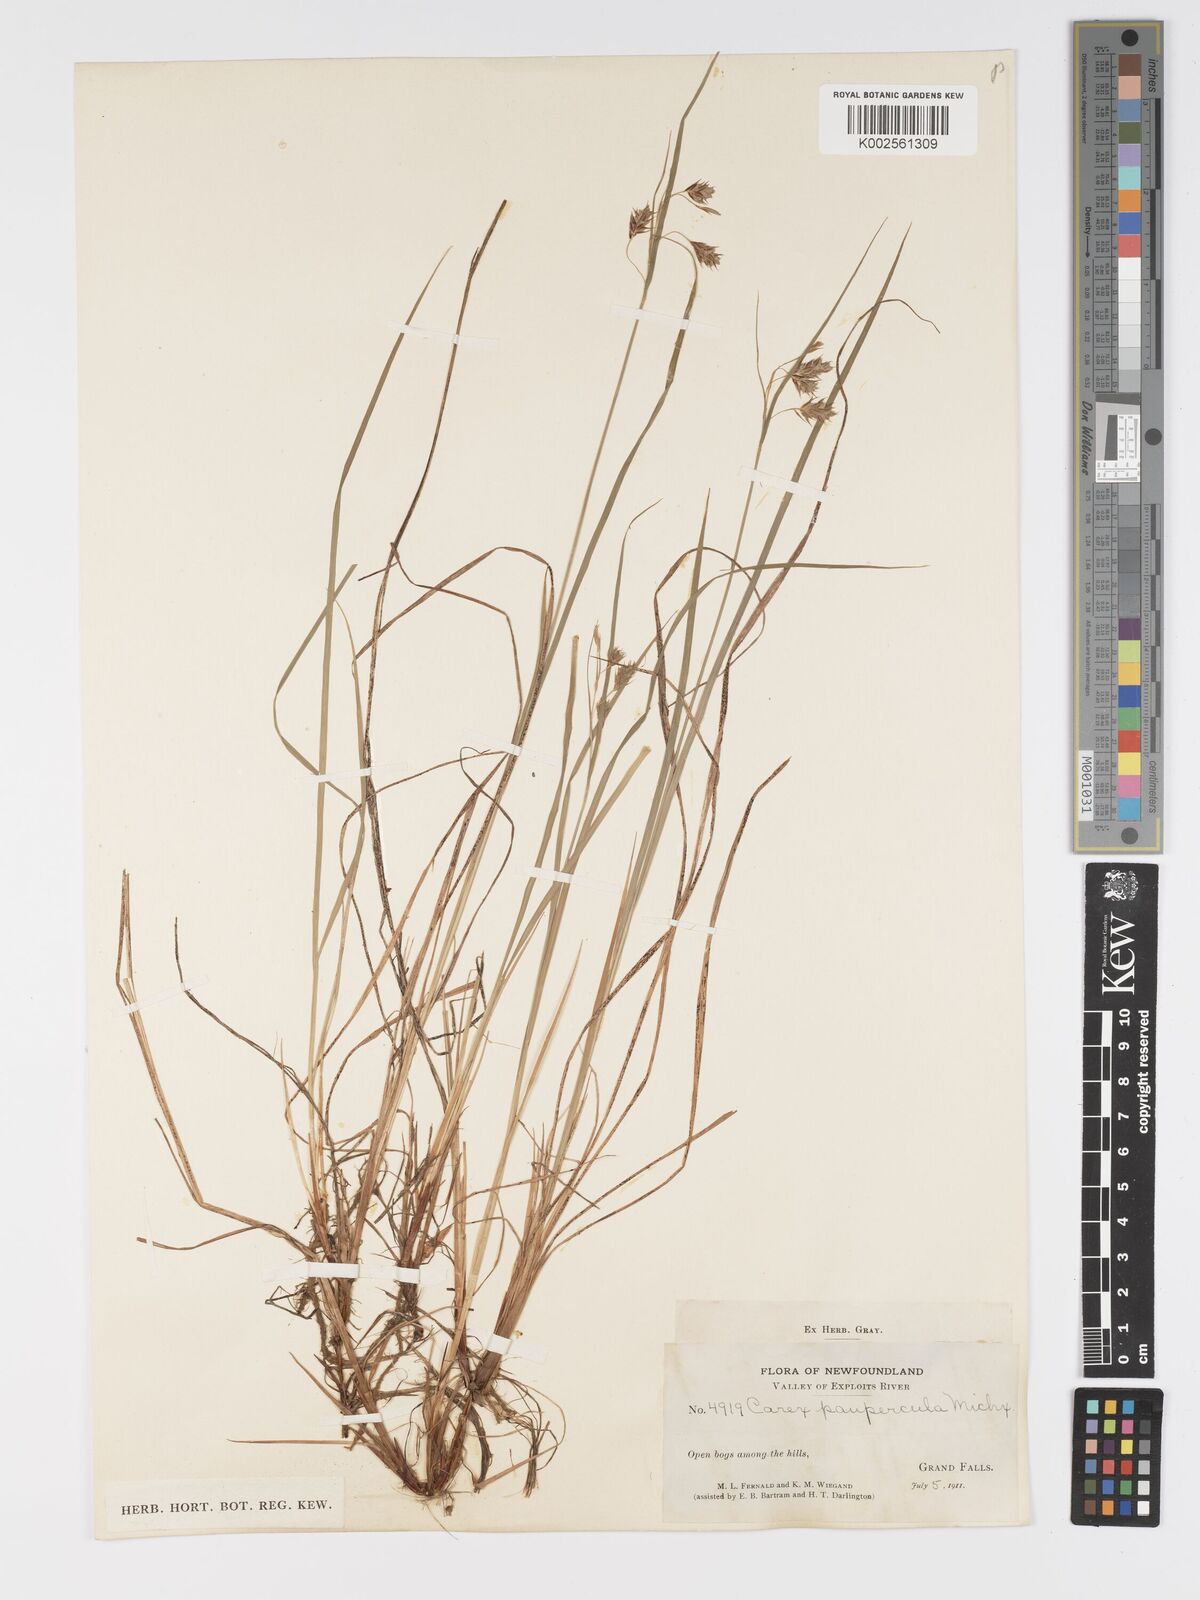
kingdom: Plantae
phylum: Tracheophyta
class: Liliopsida
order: Poales
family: Cyperaceae
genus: Carex
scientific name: Carex magellanica
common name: Bog sedge
